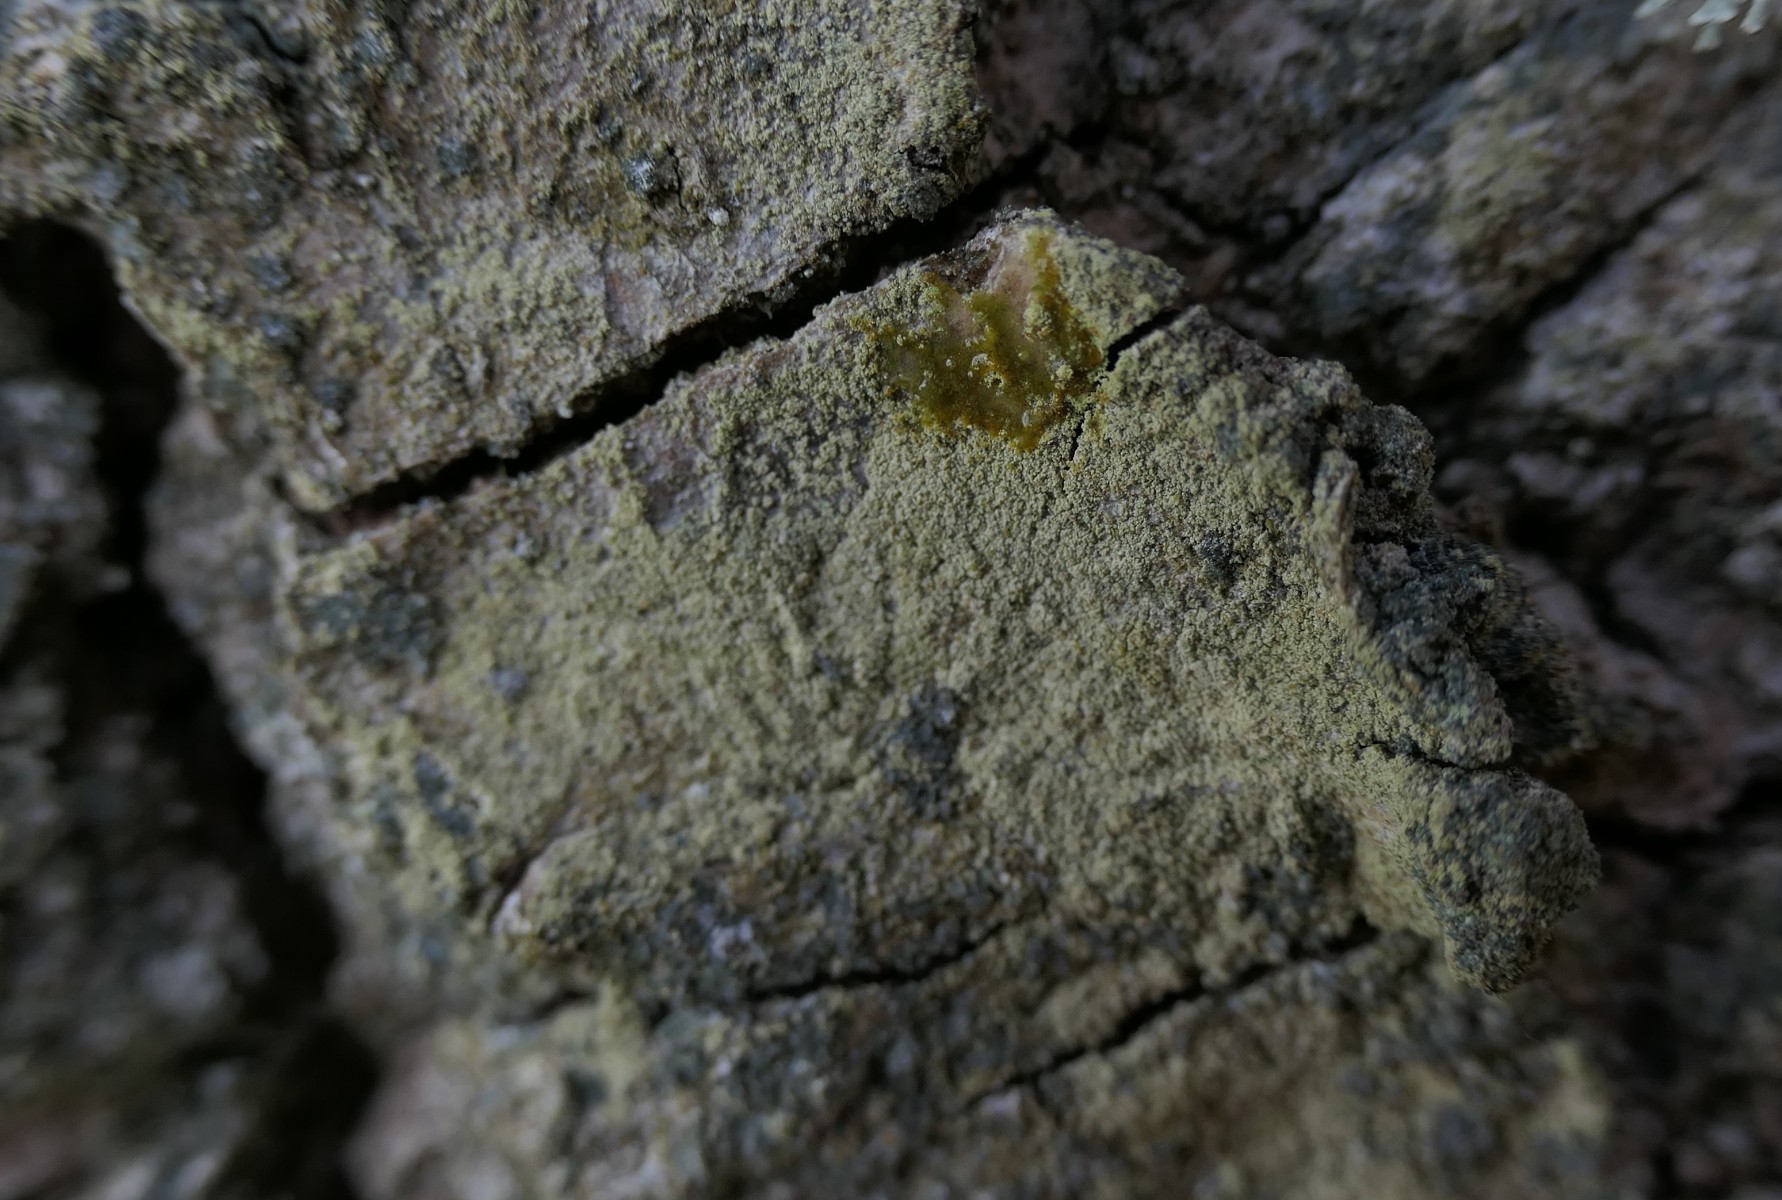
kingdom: Fungi
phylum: Ascomycota
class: Lecanoromycetes
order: Lecanorales
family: Lecanoraceae
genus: Lecanora
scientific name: Lecanora expallens
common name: bleggul kantskivelav
